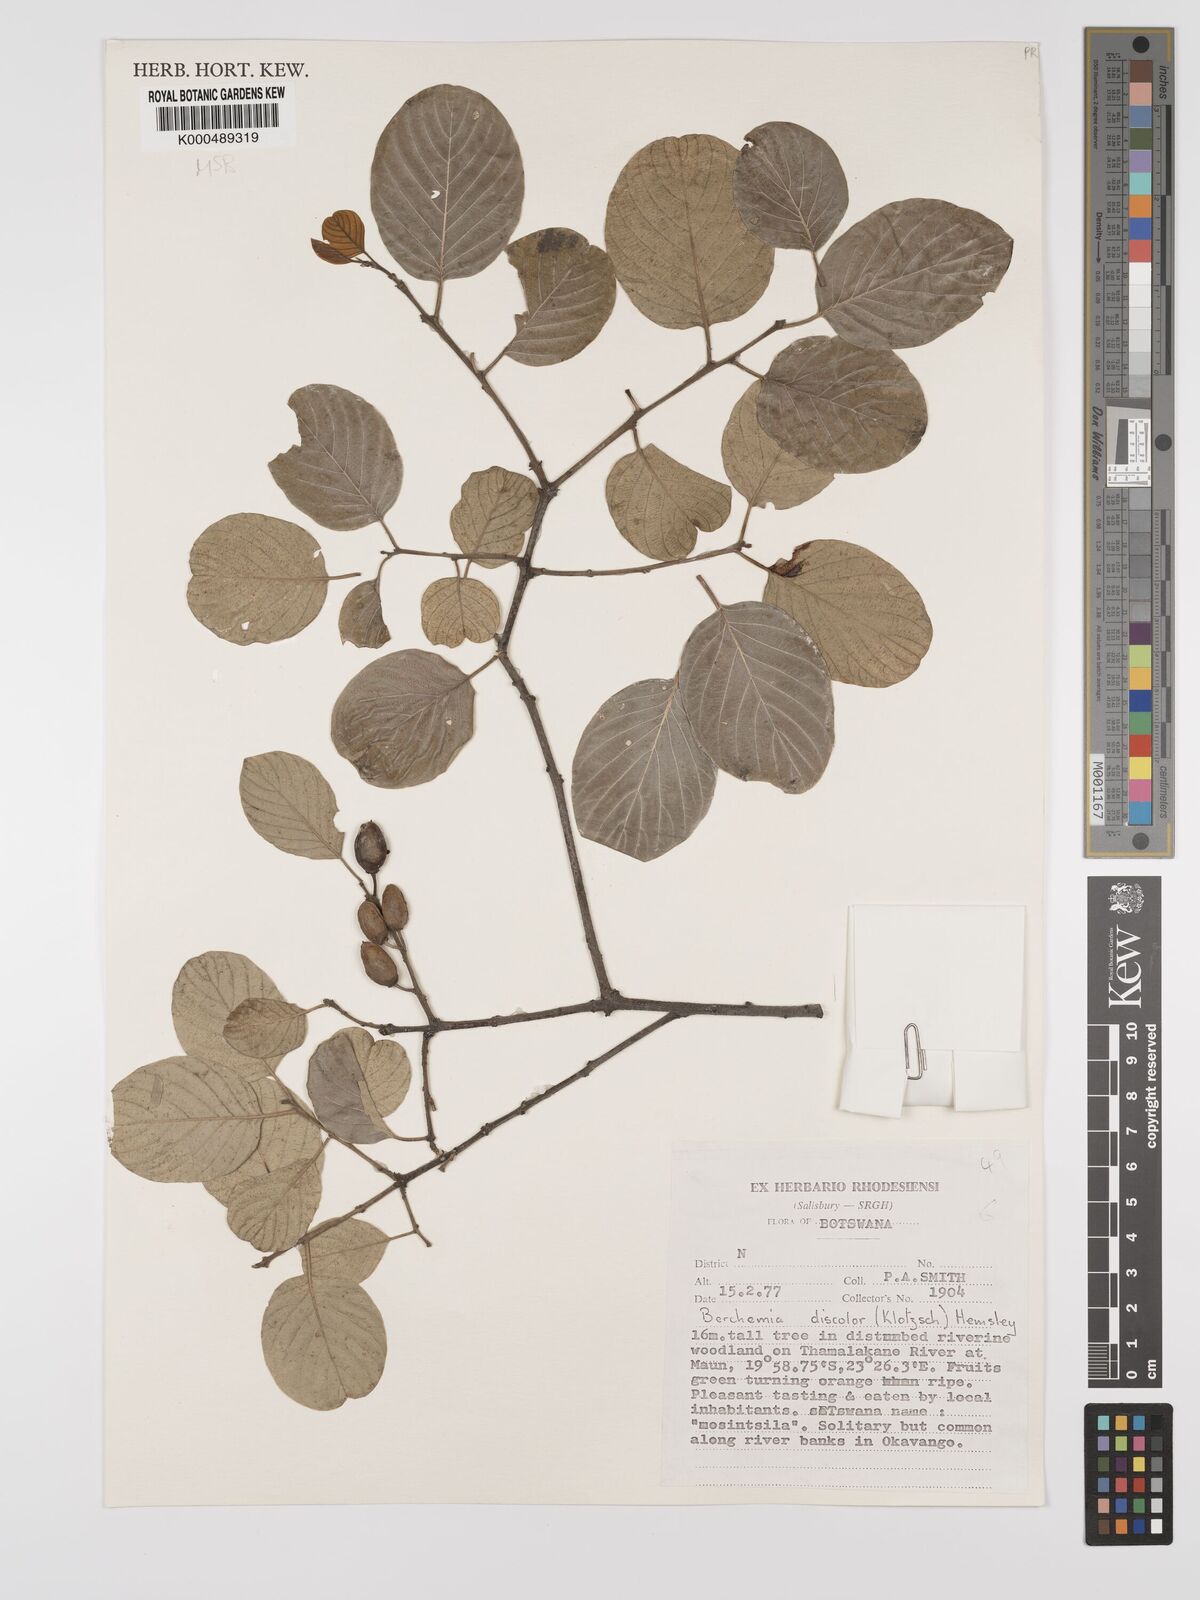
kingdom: Plantae
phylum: Tracheophyta
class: Magnoliopsida
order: Rosales
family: Rhamnaceae
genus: Phyllogeiton
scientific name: Phyllogeiton discolor
